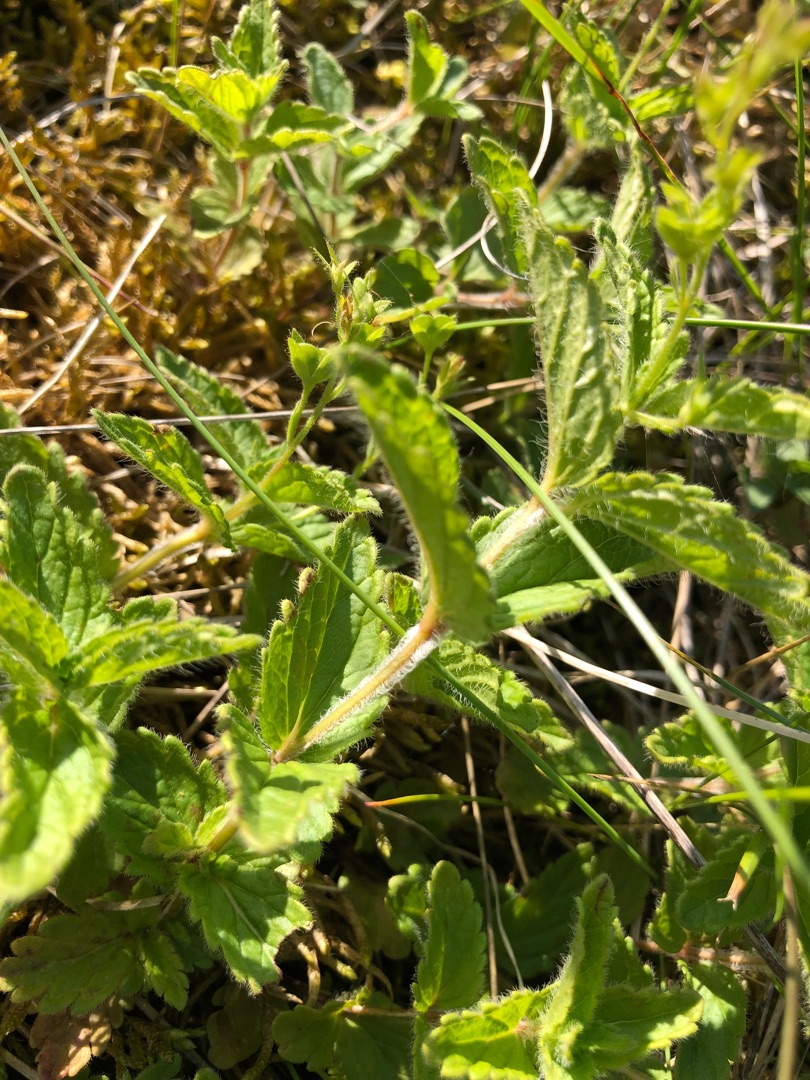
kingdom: Plantae
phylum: Tracheophyta
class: Magnoliopsida
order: Lamiales
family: Plantaginaceae
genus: Veronica
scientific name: Veronica chamaedrys
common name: Tveskægget ærenpris
